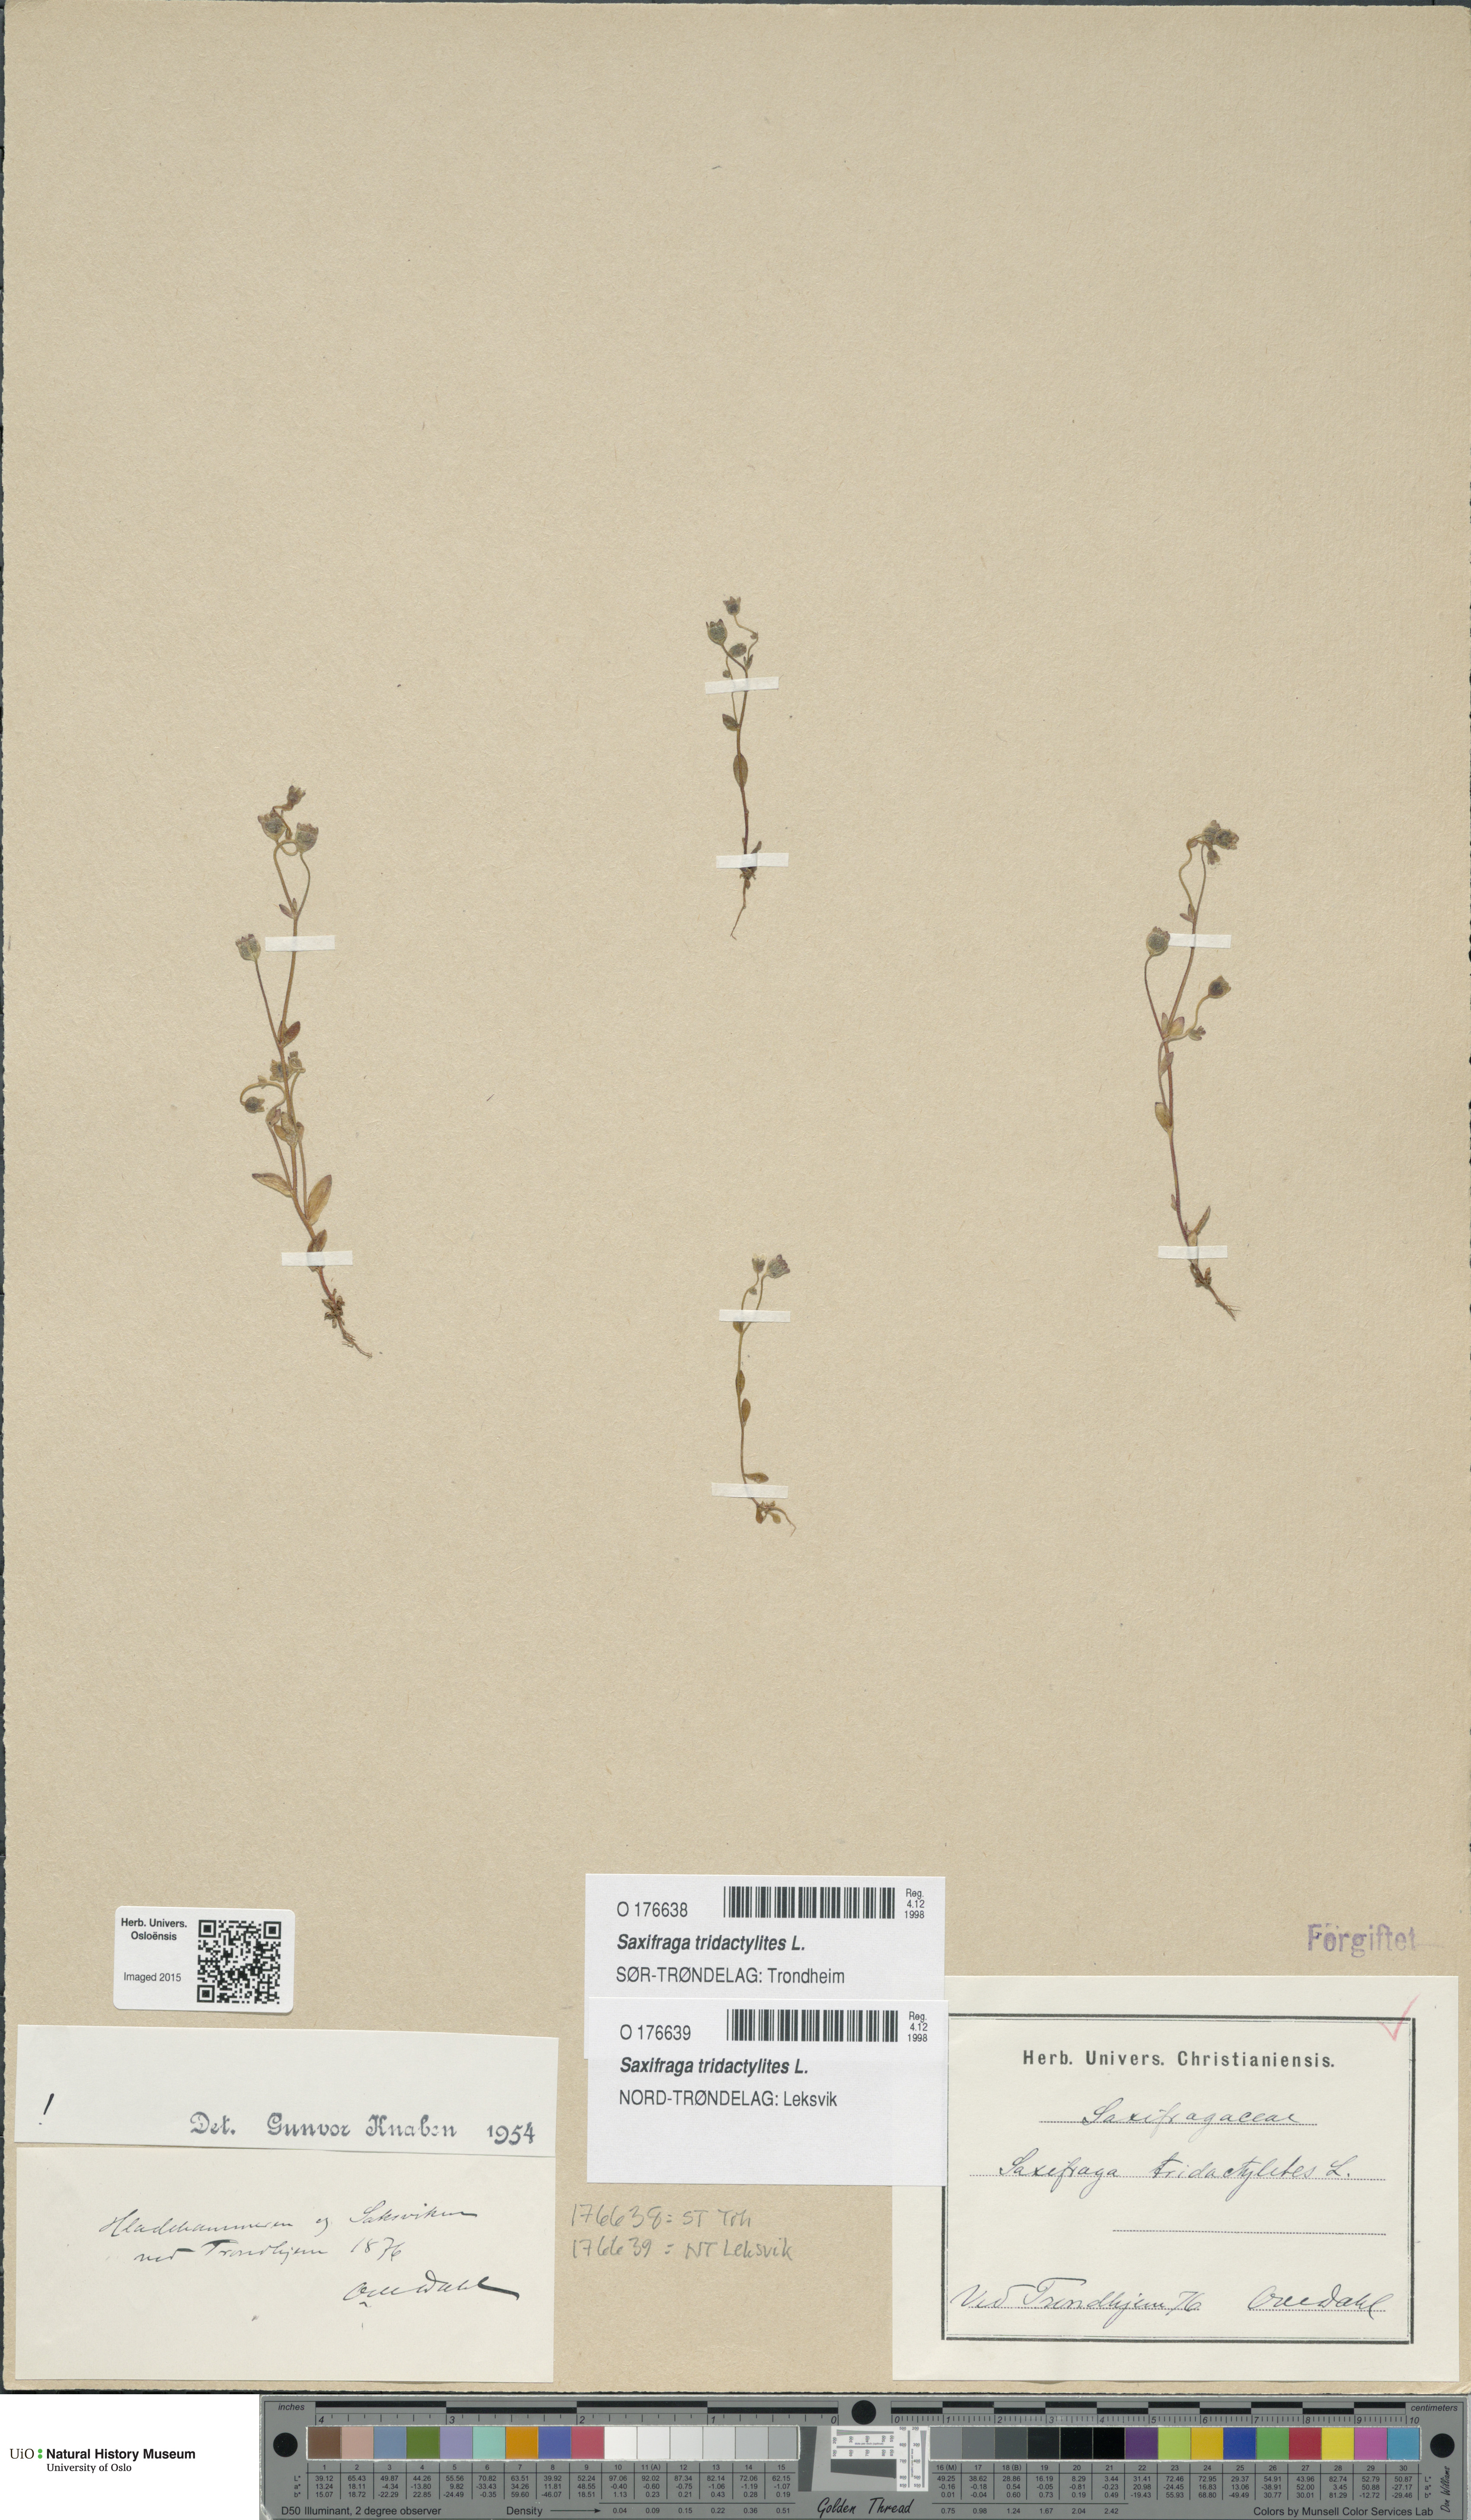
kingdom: Plantae
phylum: Tracheophyta
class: Magnoliopsida
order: Saxifragales
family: Saxifragaceae
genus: Saxifraga
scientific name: Saxifraga tridactylites
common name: Rue-leaved saxifrage
